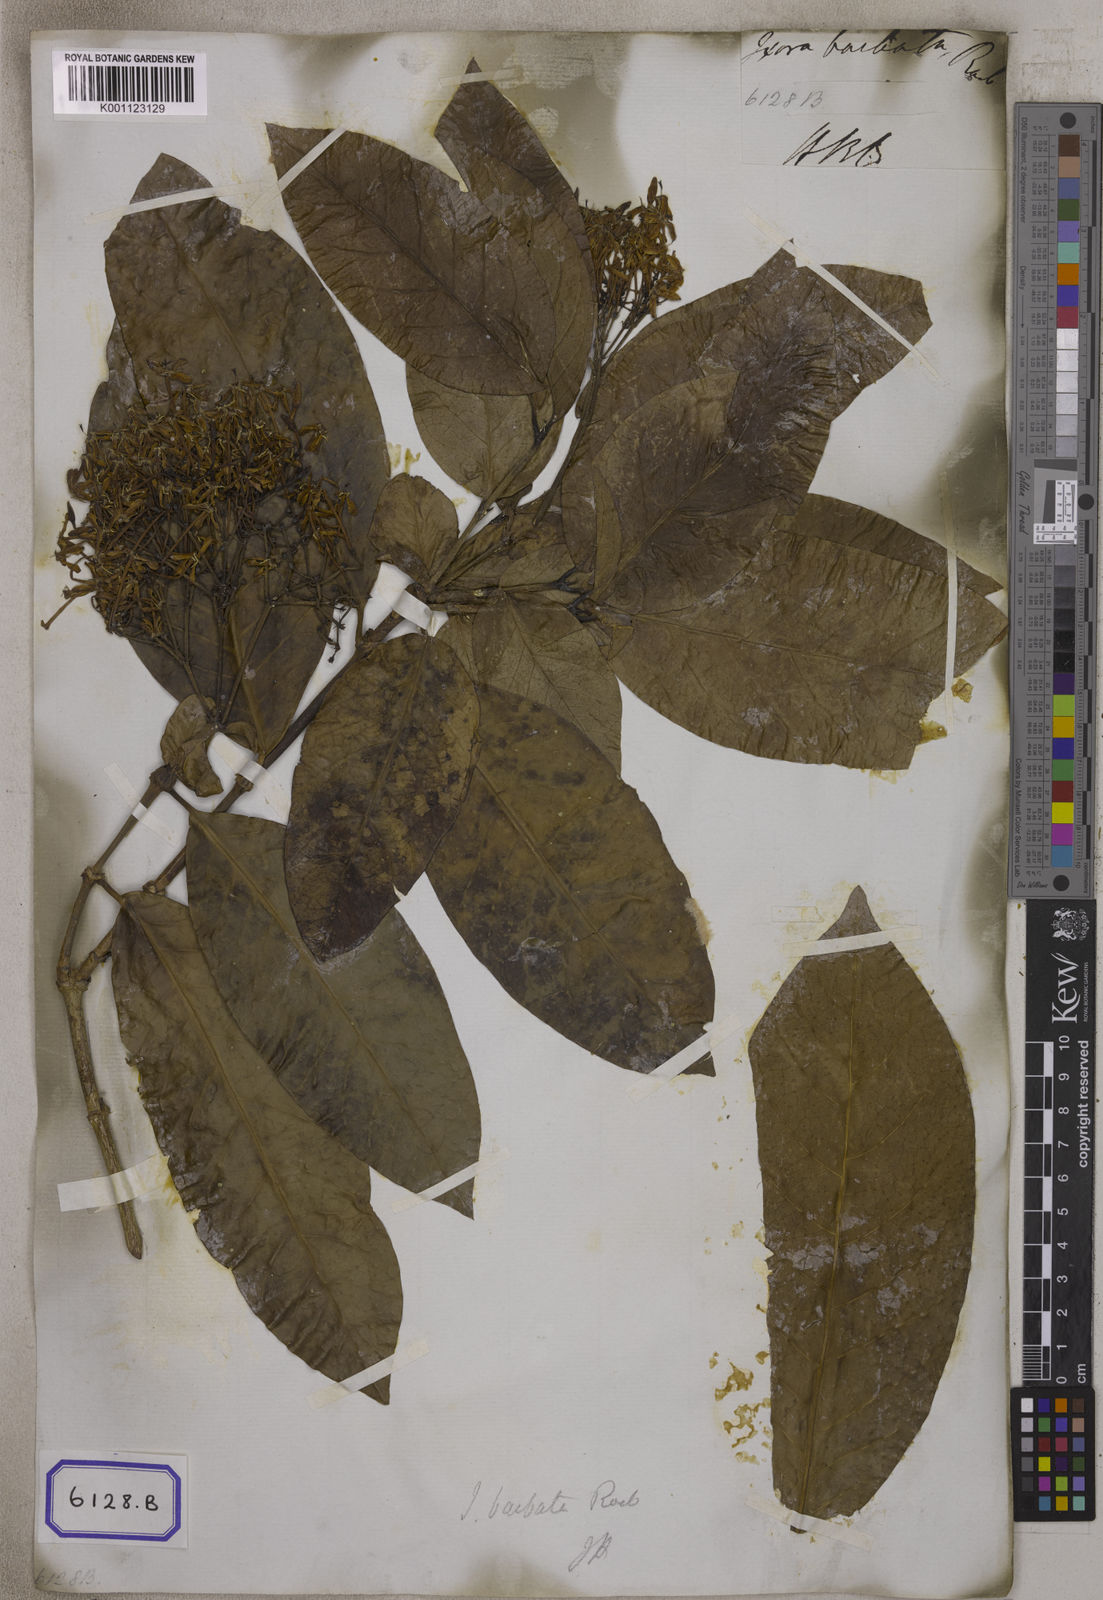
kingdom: Plantae
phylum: Tracheophyta
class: Magnoliopsida
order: Gentianales
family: Rubiaceae
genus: Ixora
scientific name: Ixora
